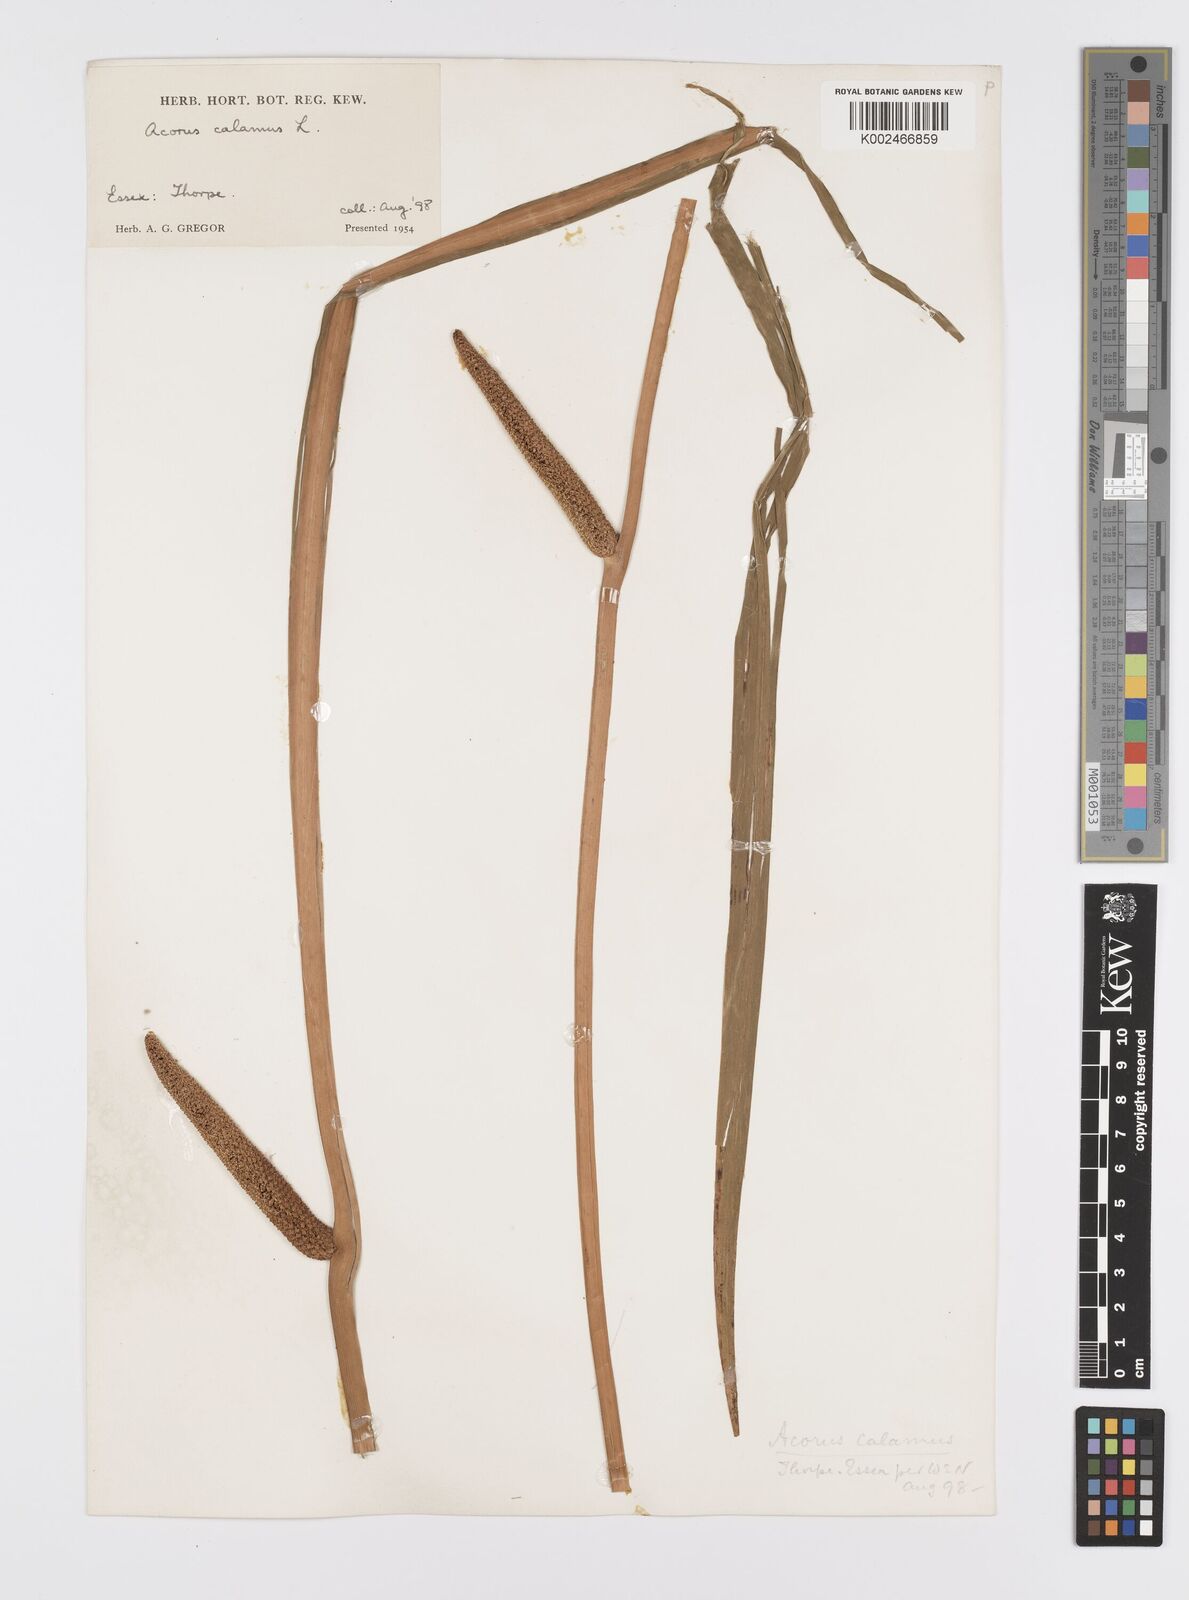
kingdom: Plantae
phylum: Tracheophyta
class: Liliopsida
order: Acorales
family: Acoraceae
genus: Acorus
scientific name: Acorus calamus
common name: Sweet-flag
